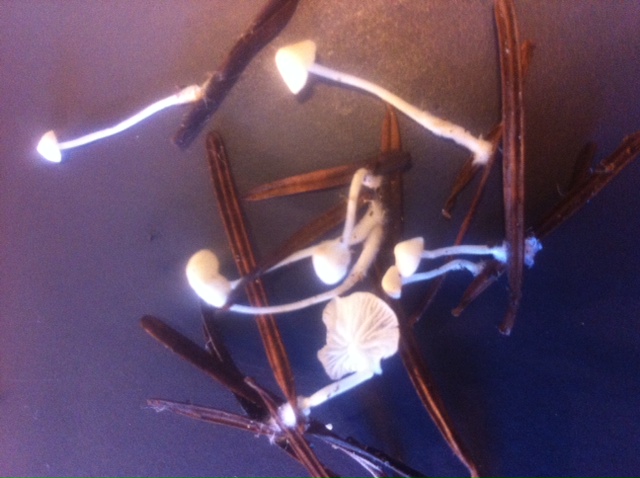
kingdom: Fungi
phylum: Basidiomycota
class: Agaricomycetes
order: Agaricales
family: Mycenaceae
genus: Hemimycena
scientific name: Hemimycena lactea
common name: mælkehvid huesvamp
